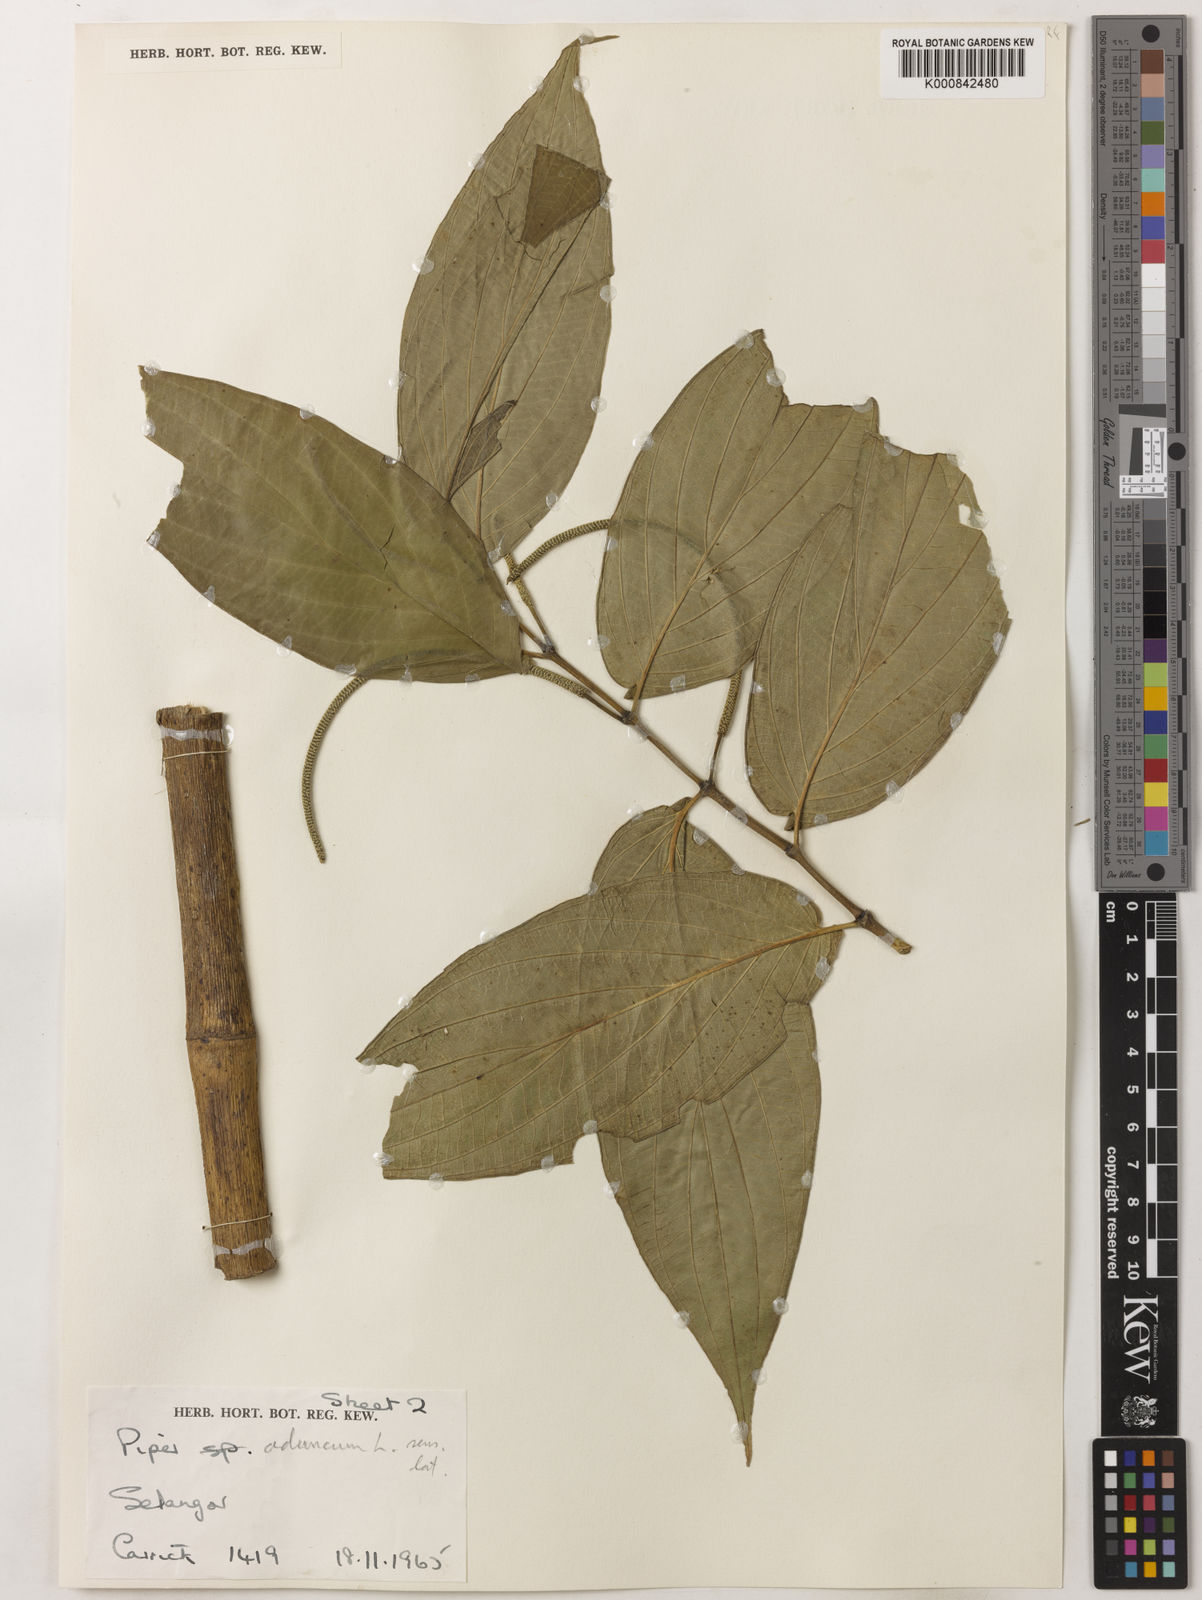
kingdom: Plantae
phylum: Tracheophyta
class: Magnoliopsida
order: Piperales
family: Piperaceae
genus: Piper
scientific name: Piper aduncum
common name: Spiked pepper
